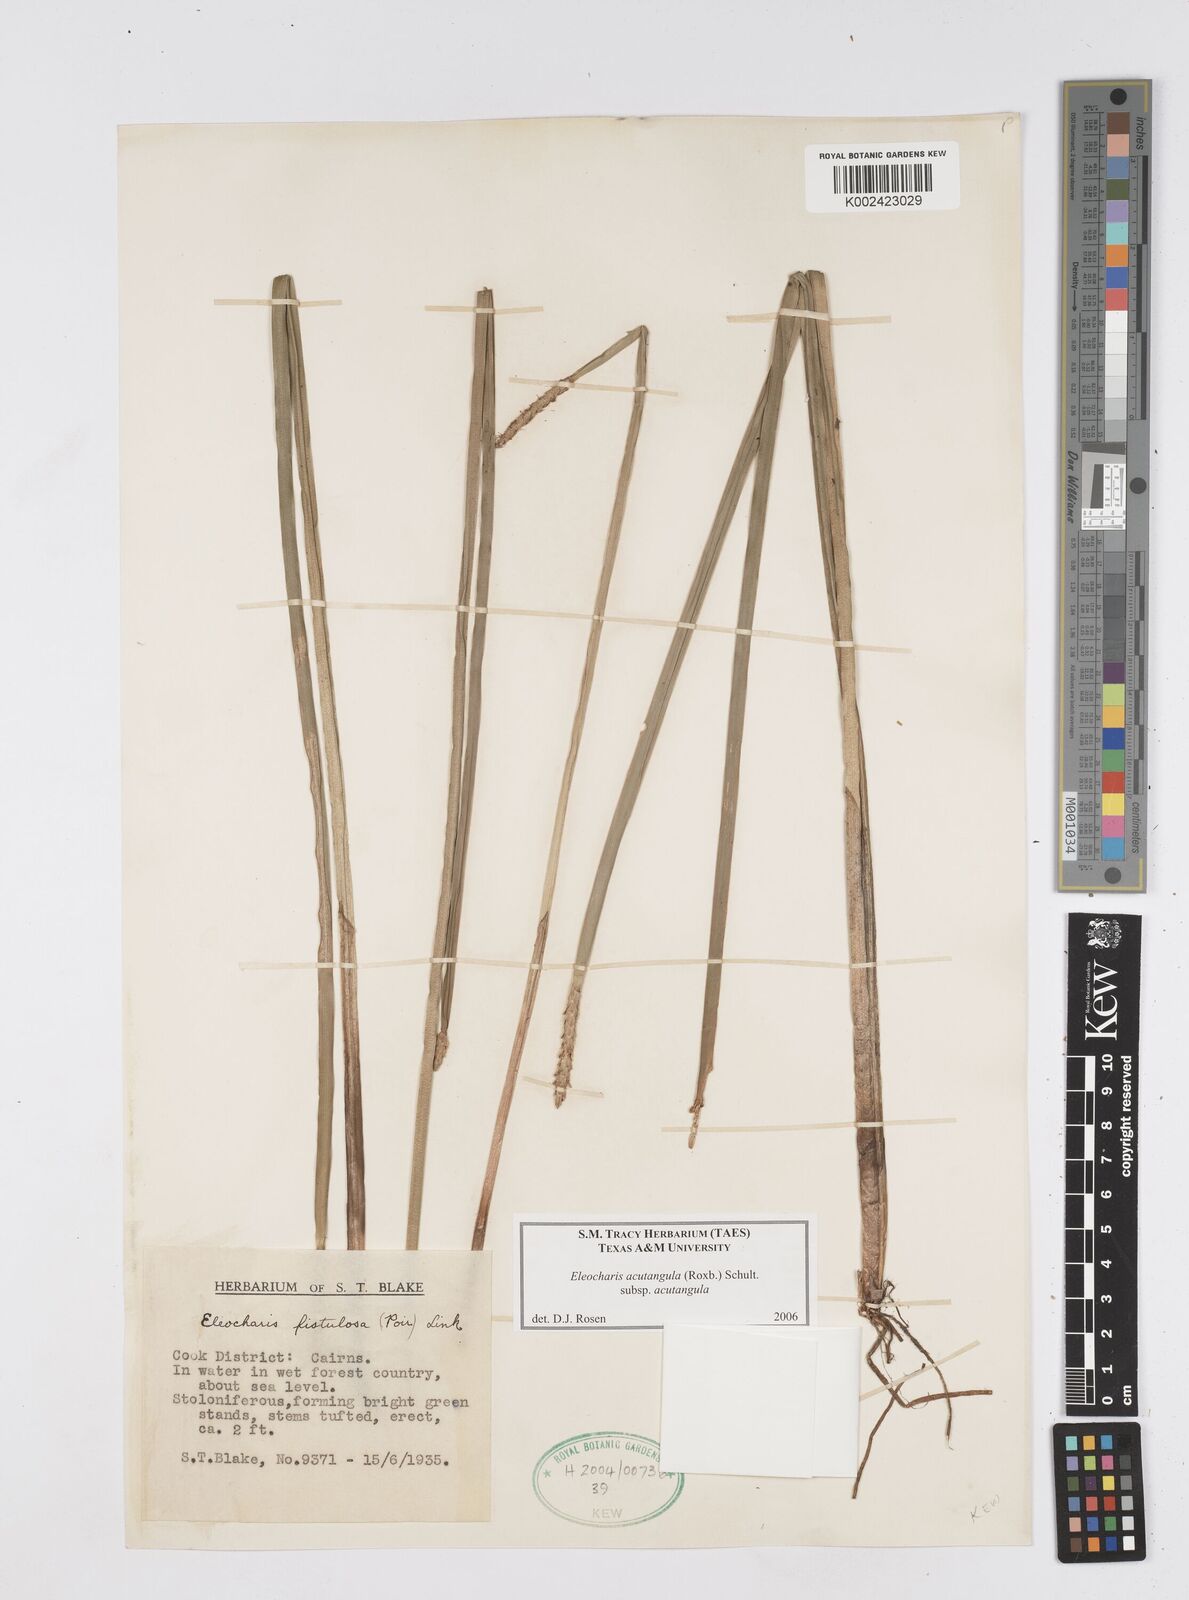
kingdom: Plantae
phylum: Tracheophyta
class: Liliopsida
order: Poales
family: Cyperaceae
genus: Eleocharis
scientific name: Eleocharis acutangula
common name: Acute spikerush
